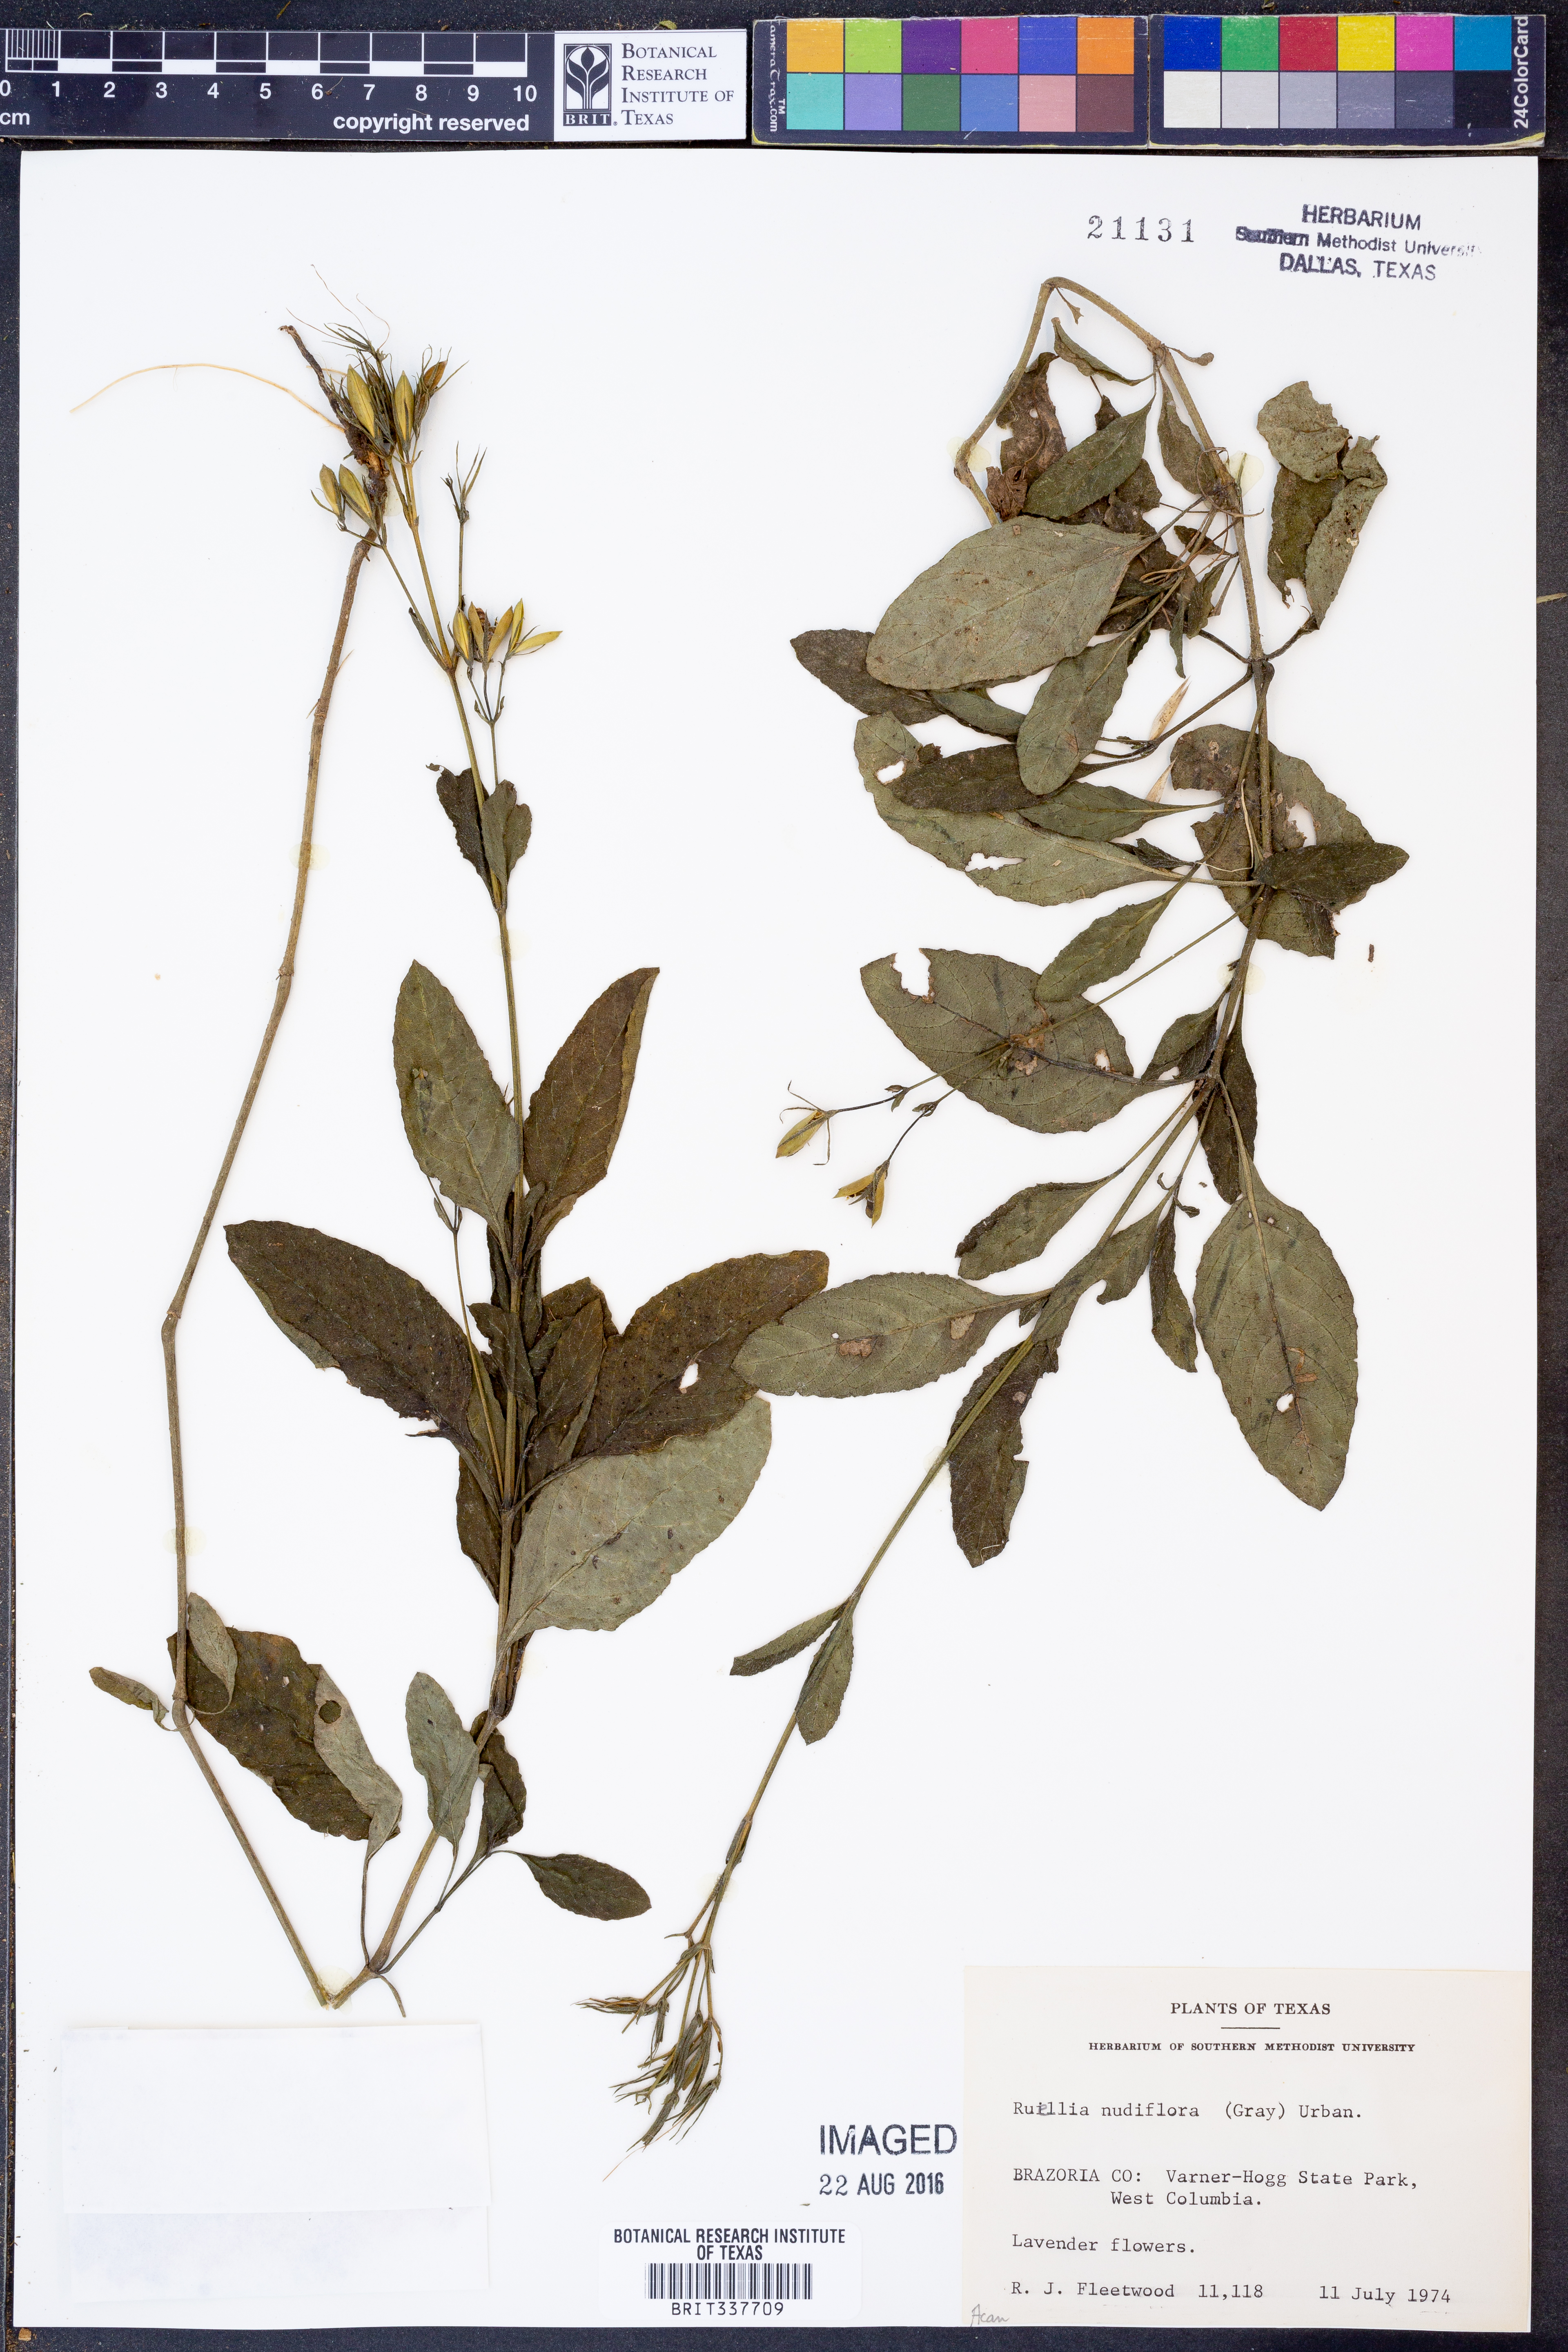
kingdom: Plantae
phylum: Tracheophyta
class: Magnoliopsida
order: Lamiales
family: Acanthaceae
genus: Ruellia
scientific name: Ruellia ciliatiflora
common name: Hairyflower wild petunia
